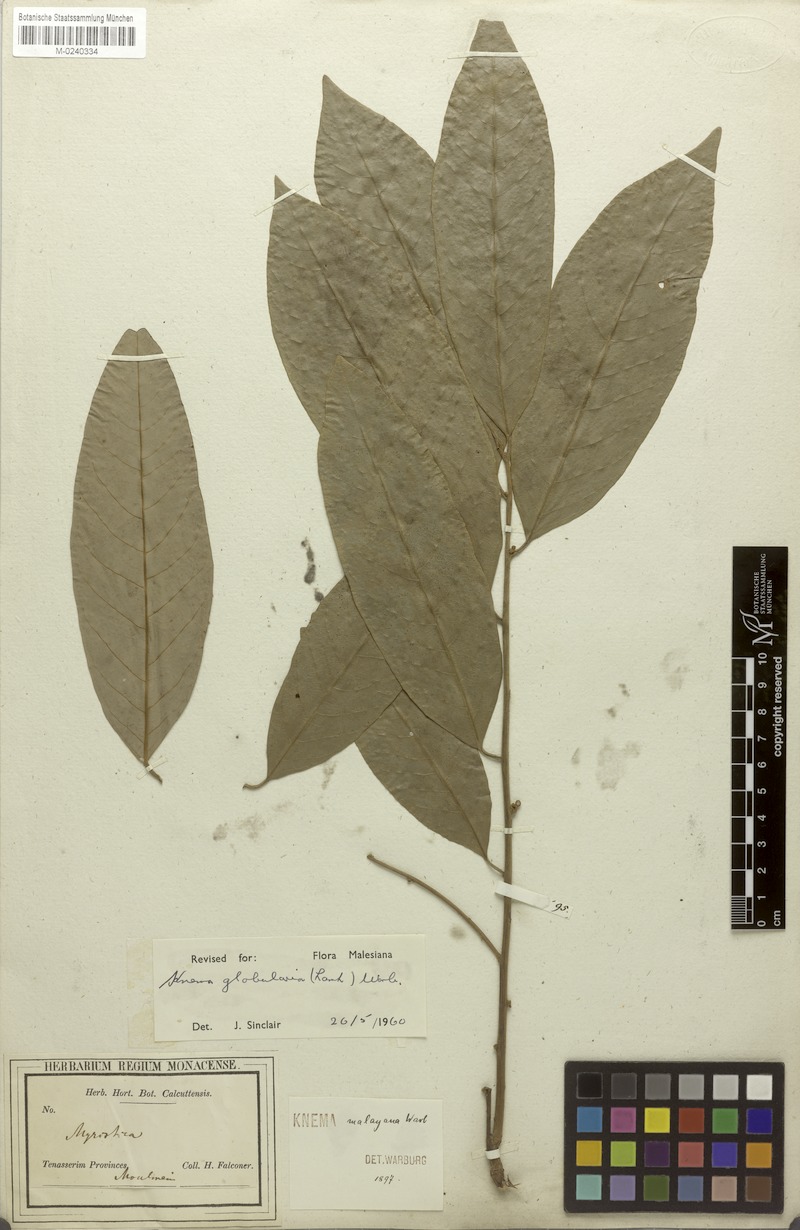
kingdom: Plantae
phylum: Tracheophyta
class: Magnoliopsida
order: Magnoliales
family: Myristicaceae
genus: Knema
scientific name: Knema globularia
